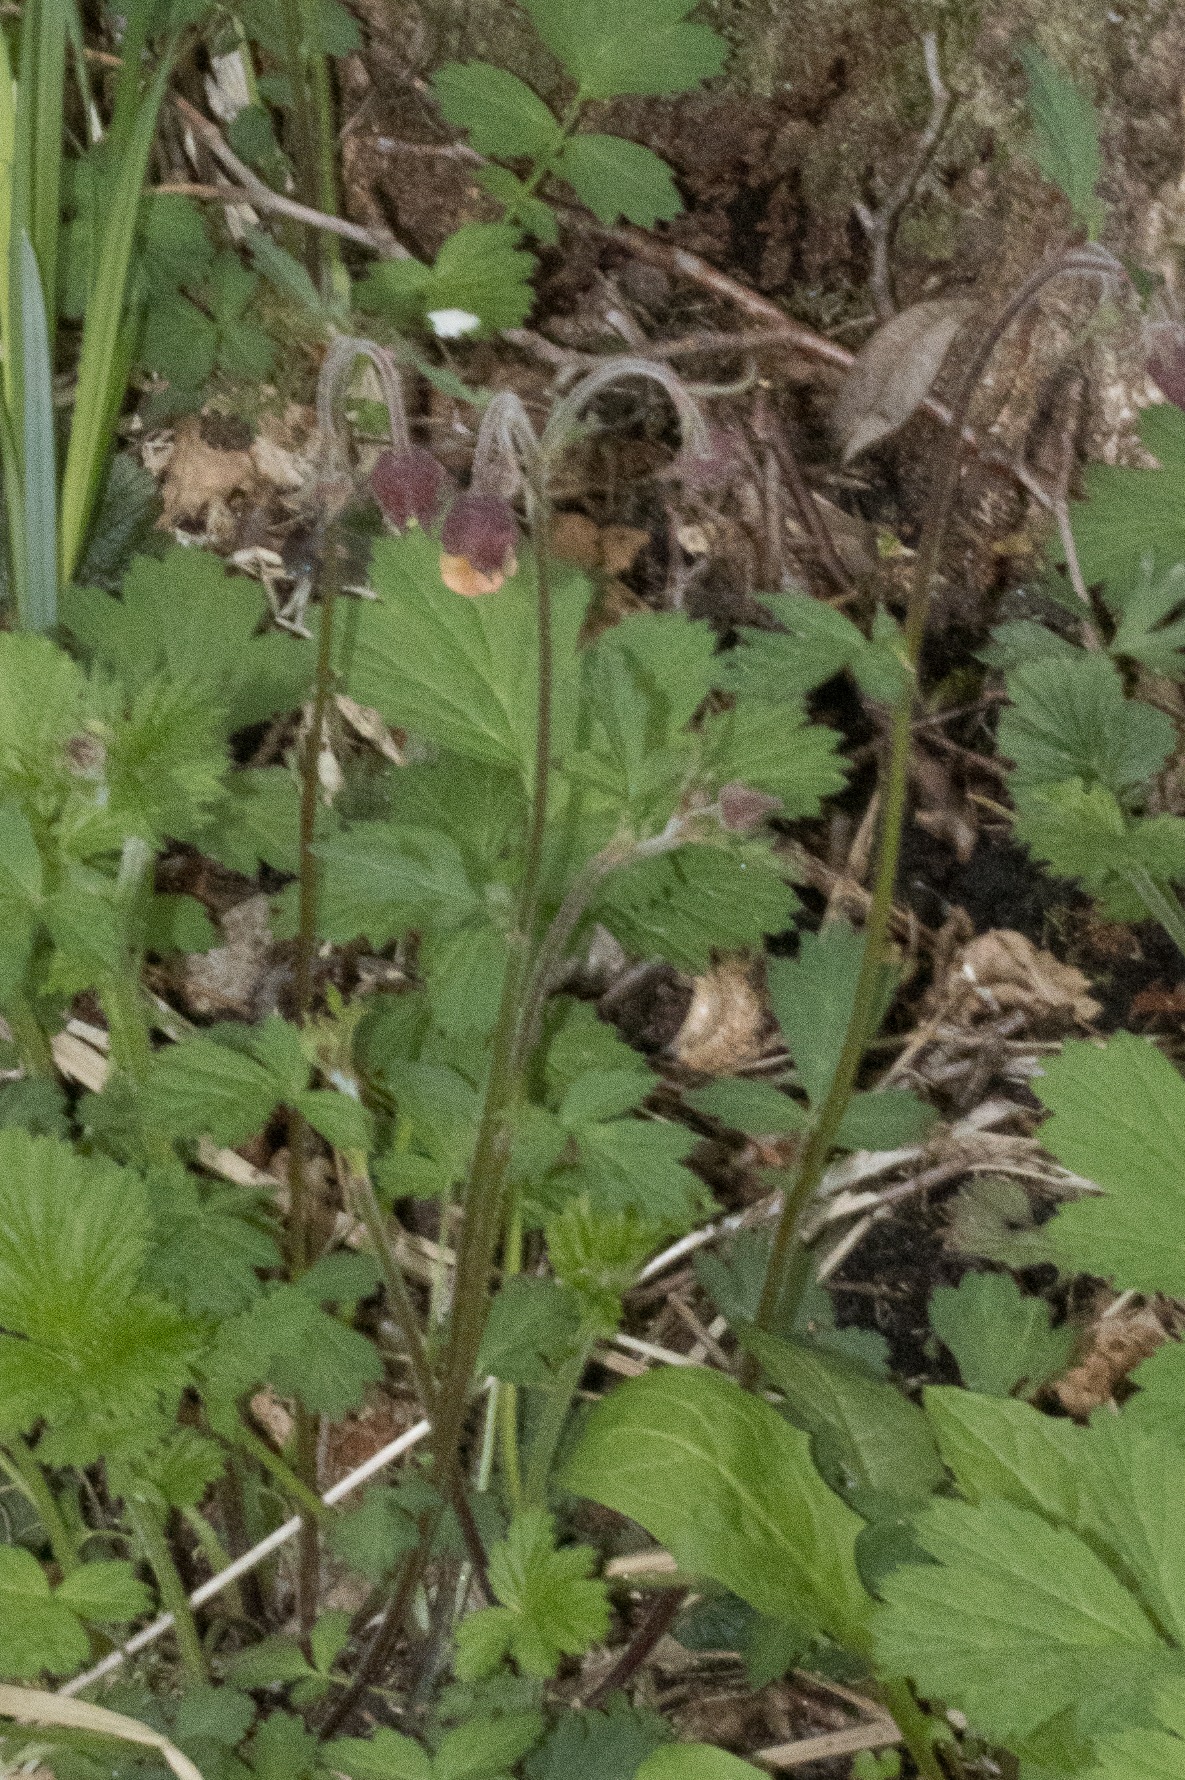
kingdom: Plantae
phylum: Tracheophyta
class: Magnoliopsida
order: Rosales
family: Rosaceae
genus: Geum
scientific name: Geum rivale
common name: Eng-nellikerod
